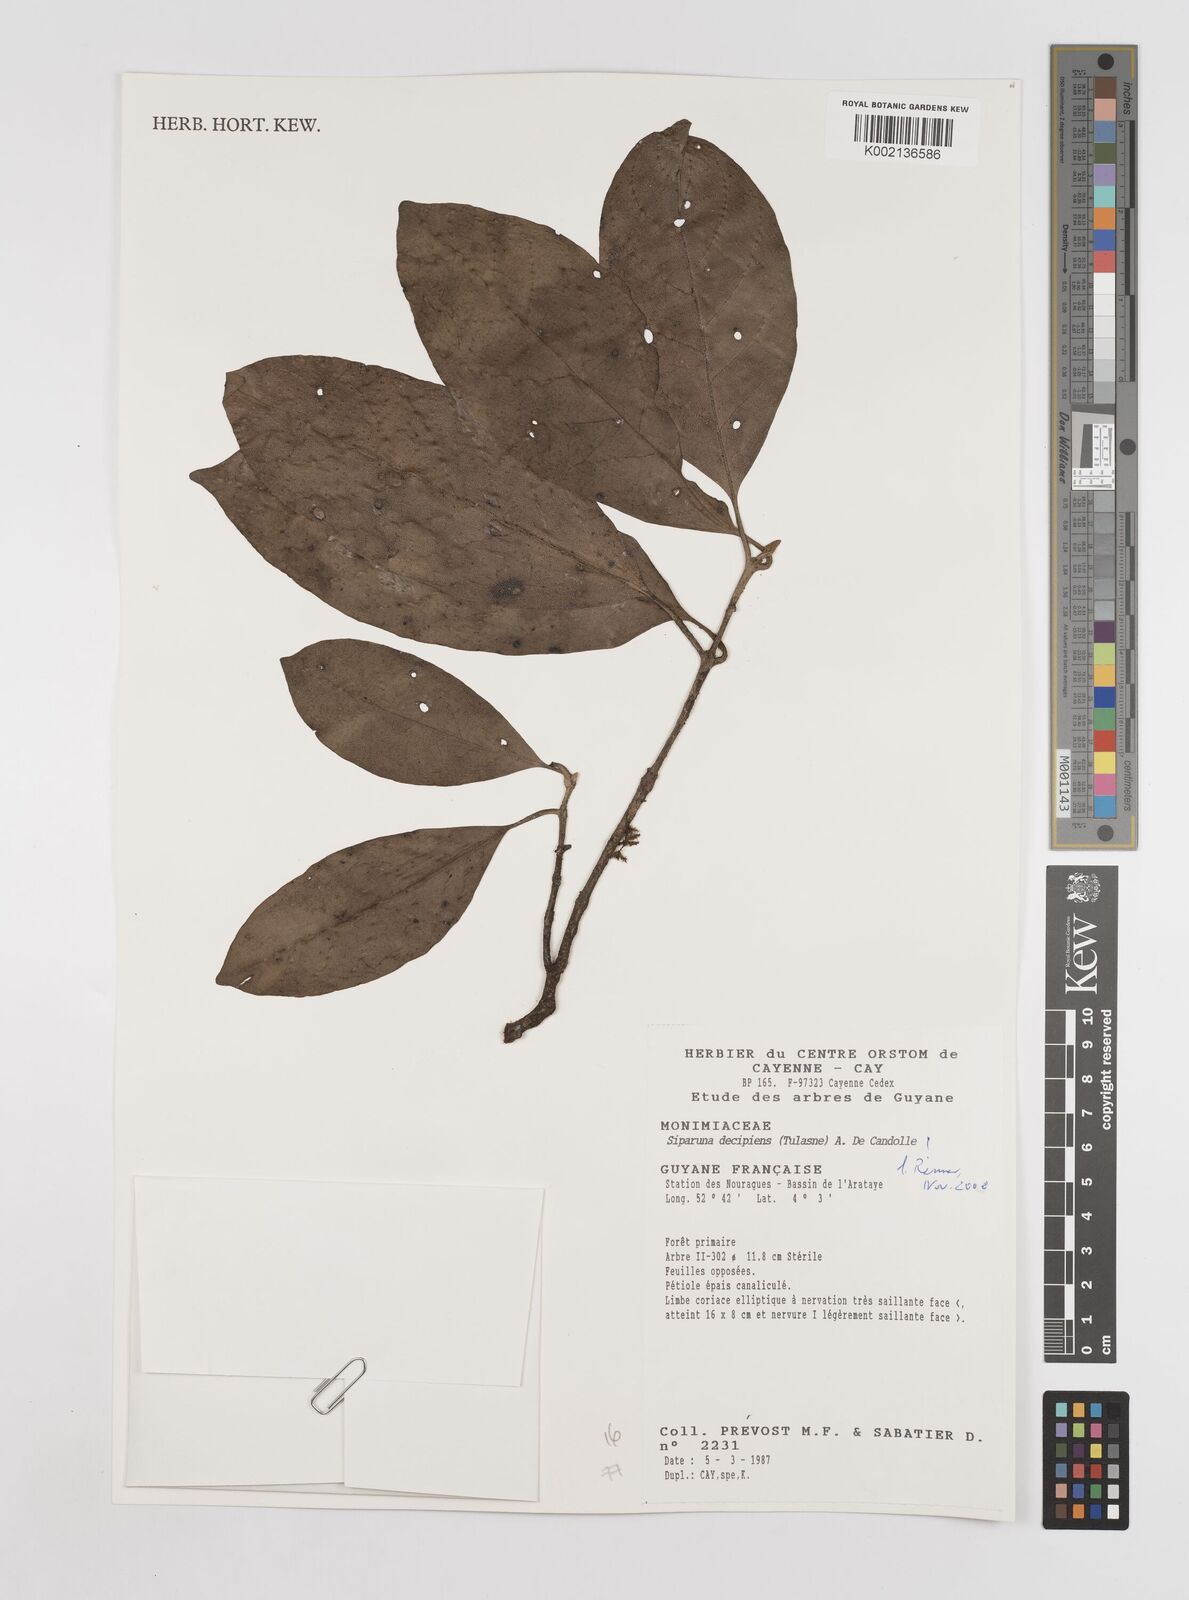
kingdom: Plantae
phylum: Tracheophyta
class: Magnoliopsida
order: Laurales
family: Siparunaceae
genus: Siparuna
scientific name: Siparuna decipiens
